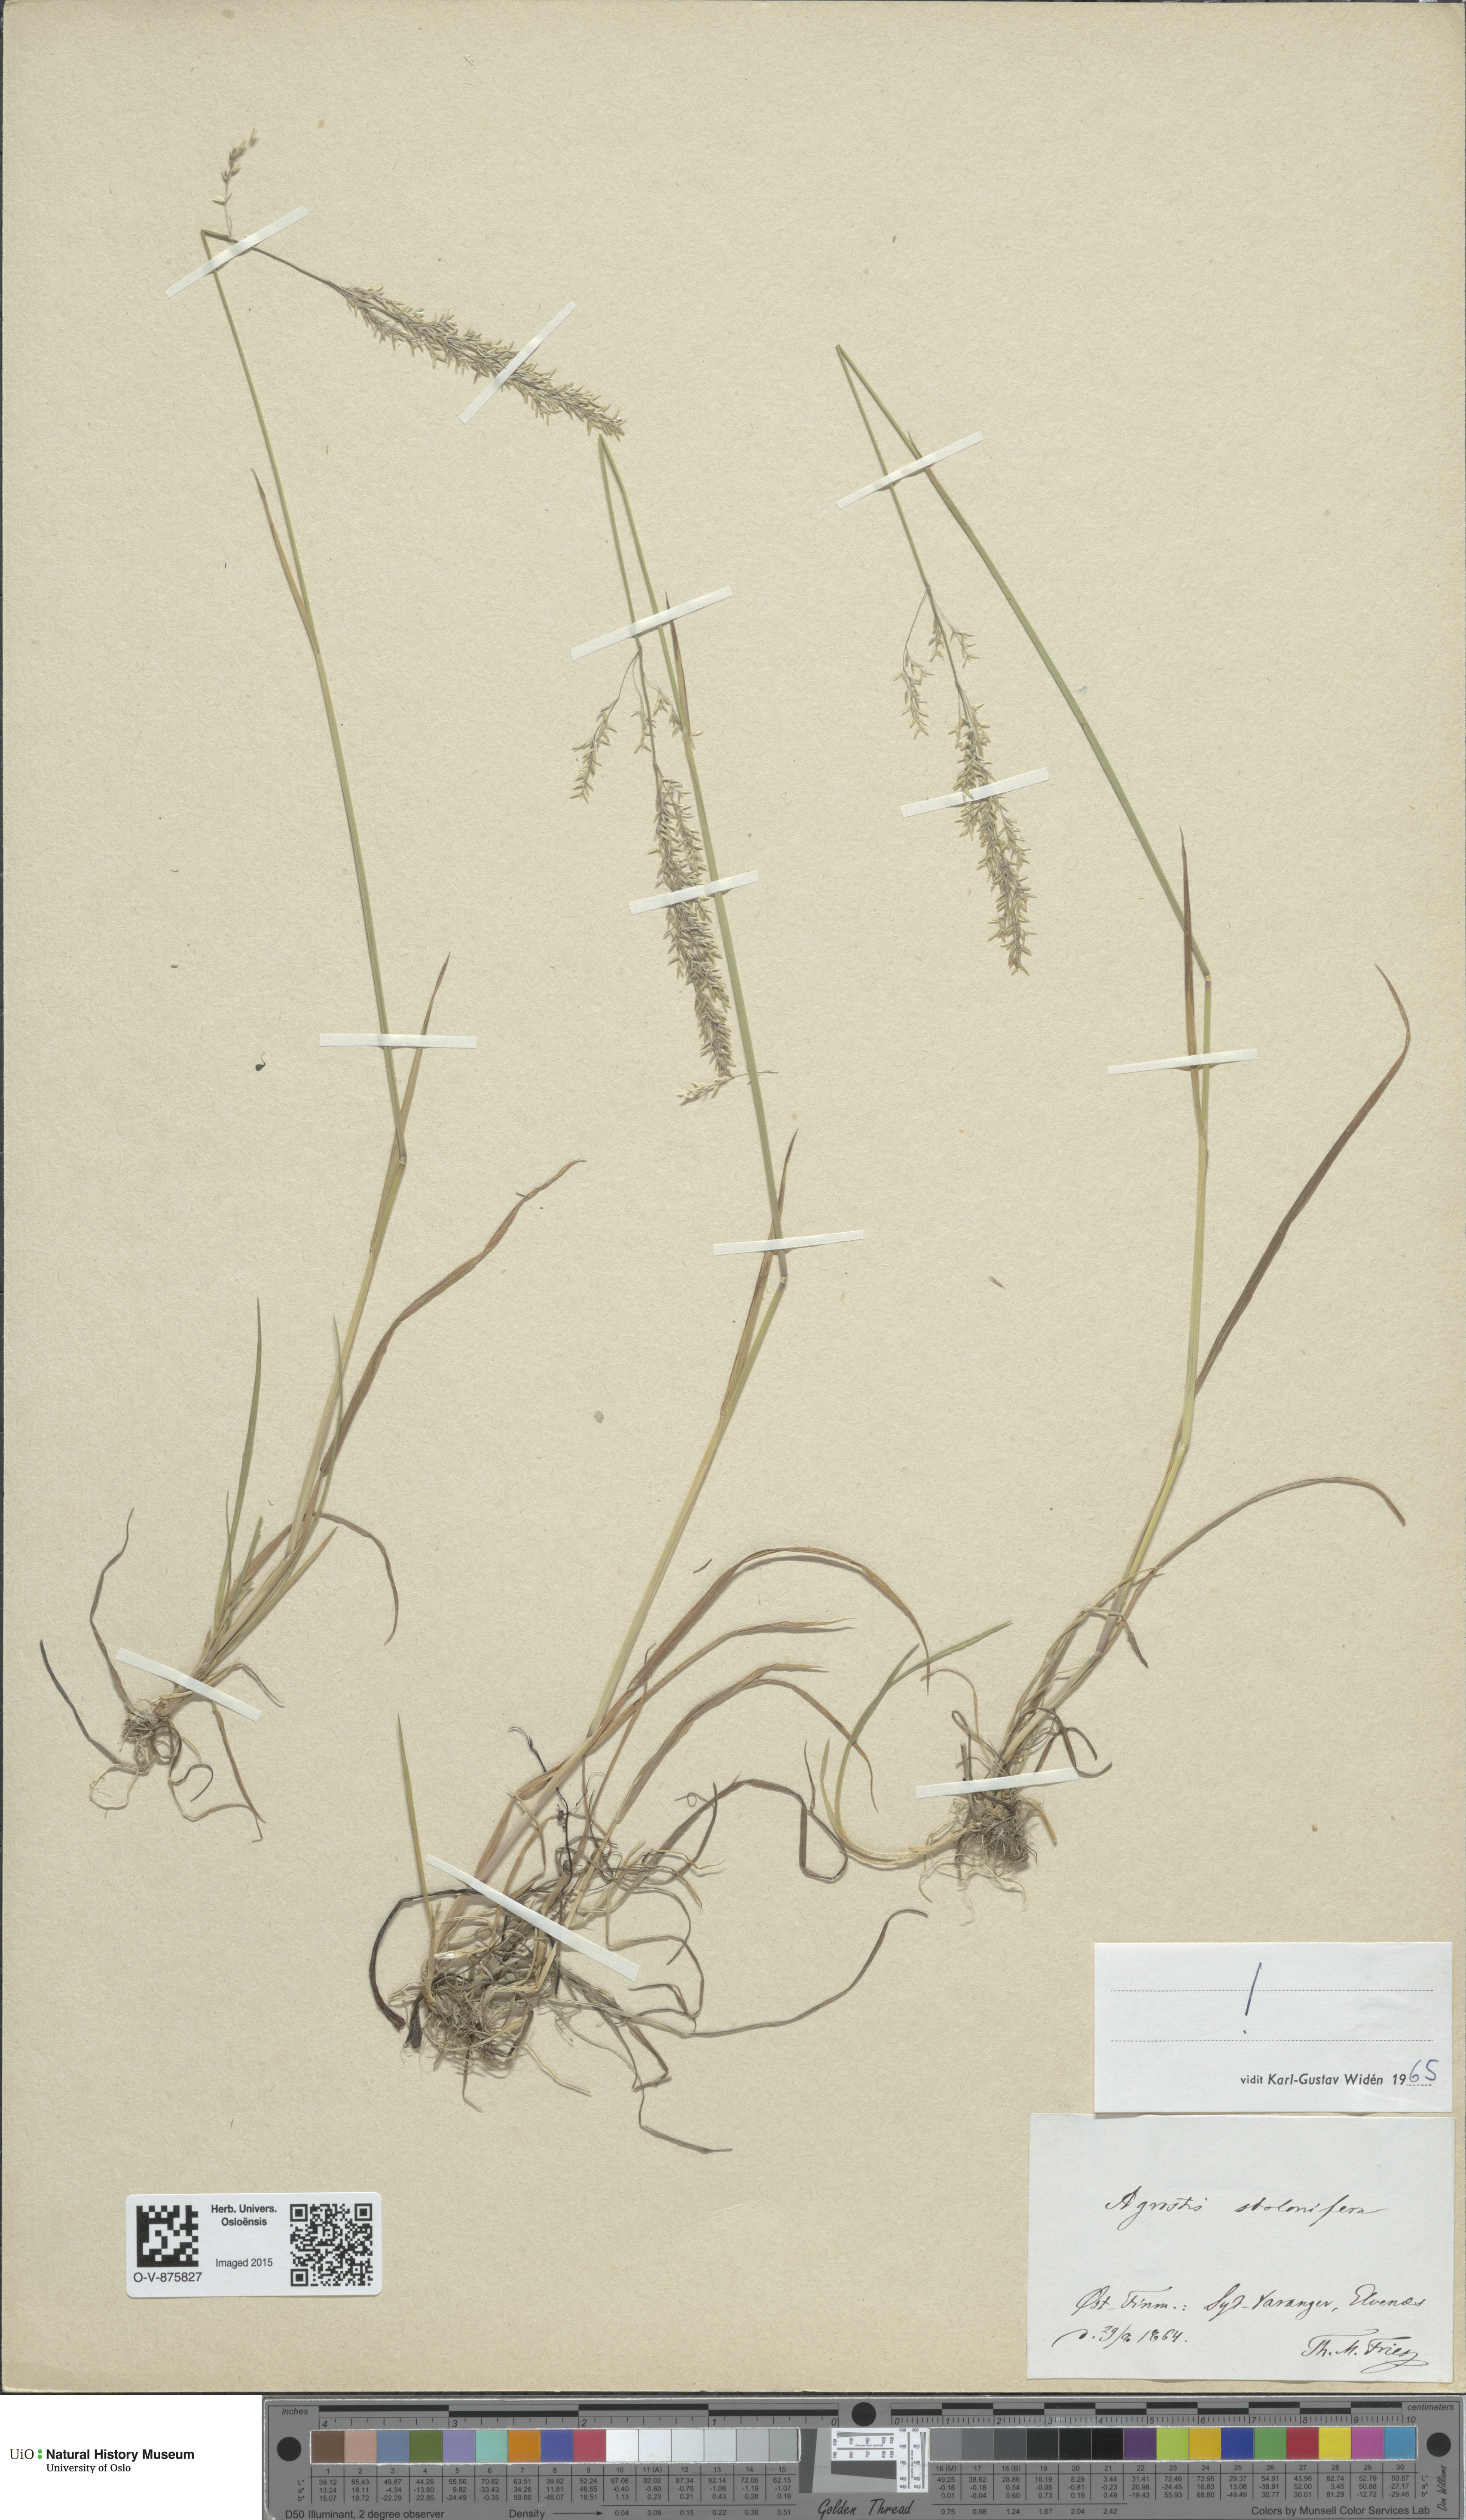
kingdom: Plantae
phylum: Tracheophyta
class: Liliopsida
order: Poales
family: Poaceae
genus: Agrostis
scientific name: Agrostis stolonifera
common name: Creeping bentgrass
